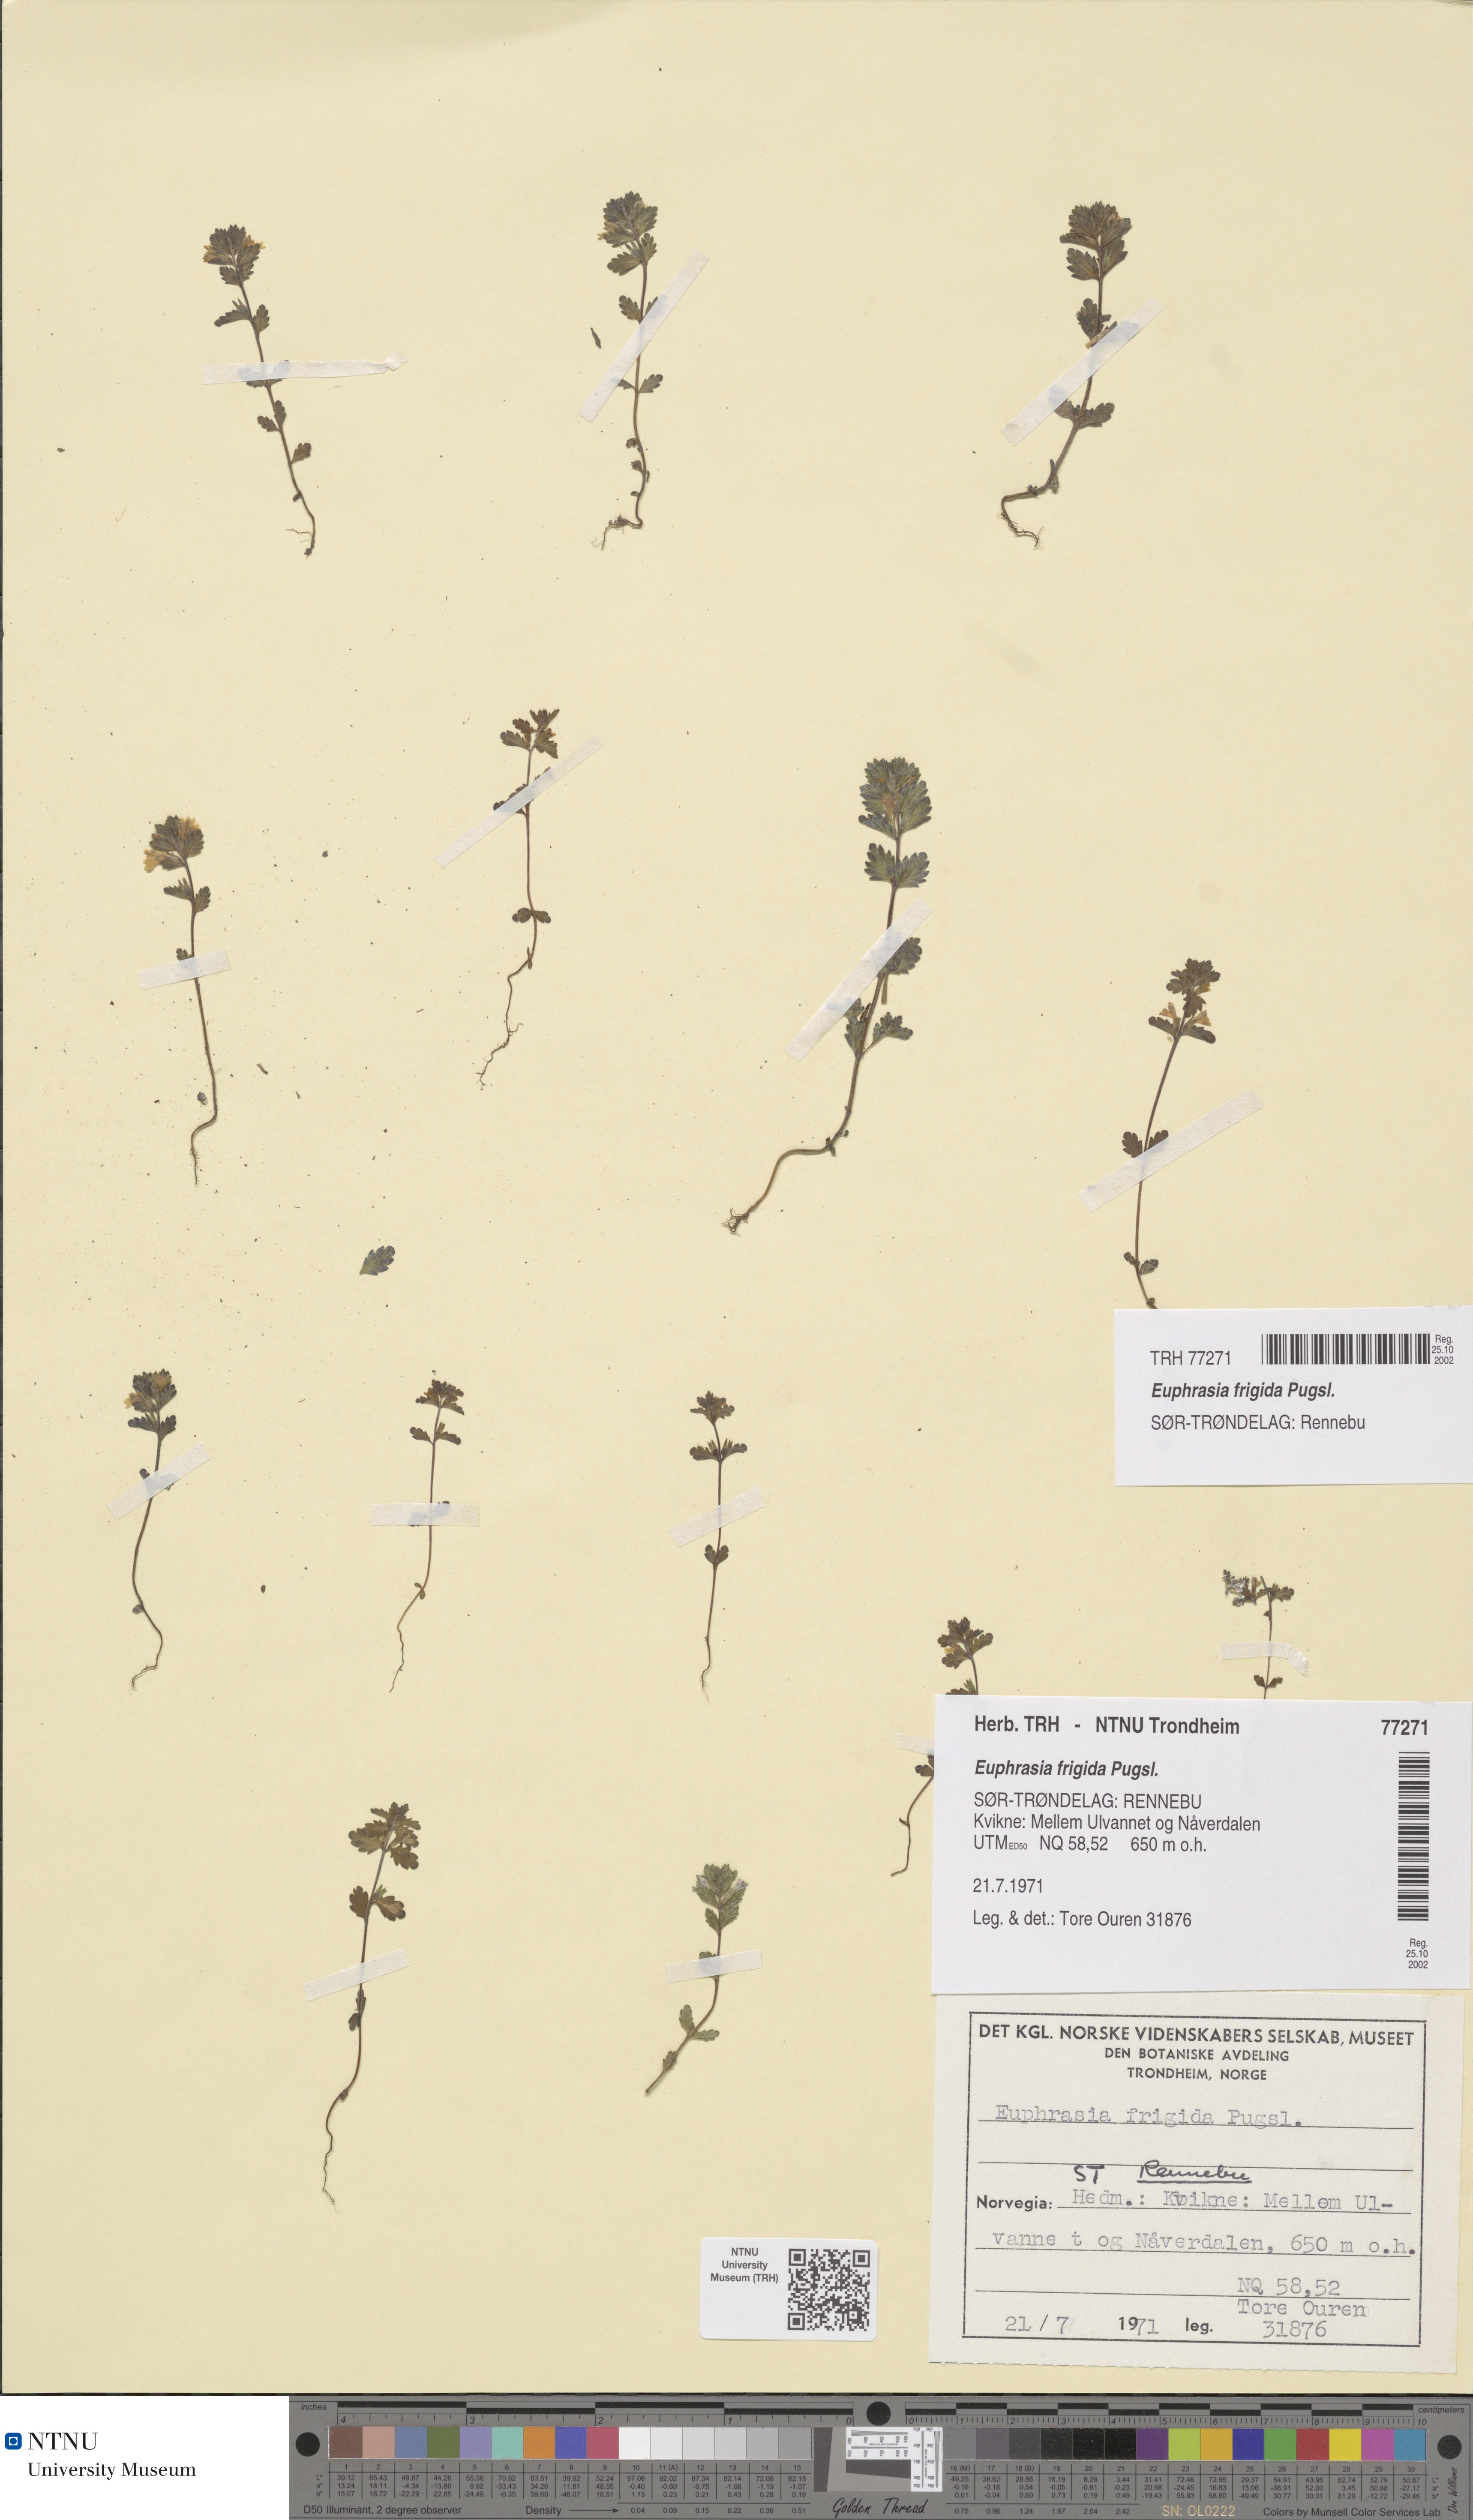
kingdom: Plantae
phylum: Tracheophyta
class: Magnoliopsida
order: Lamiales
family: Orobanchaceae
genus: Euphrasia
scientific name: Euphrasia wettsteinii
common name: Wettstein's eyebright
